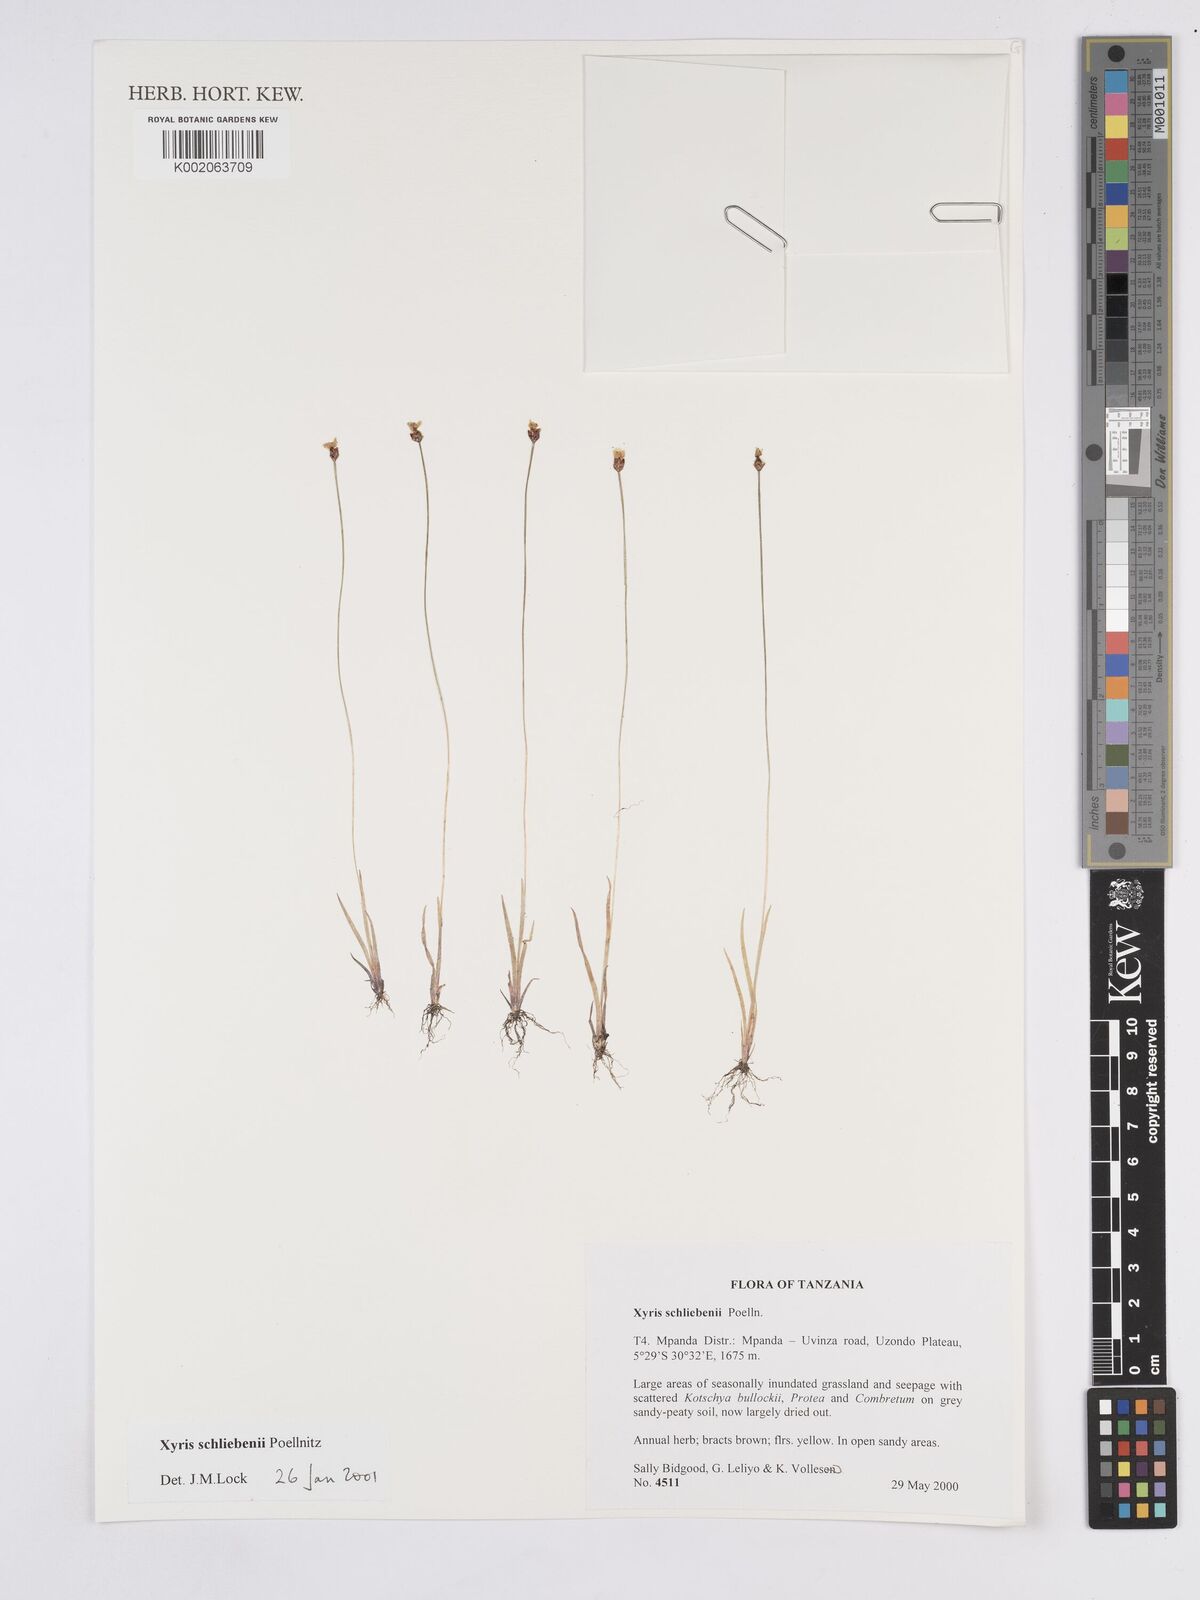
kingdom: Plantae
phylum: Tracheophyta
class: Liliopsida
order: Poales
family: Xyridaceae
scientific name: Xyridaceae
